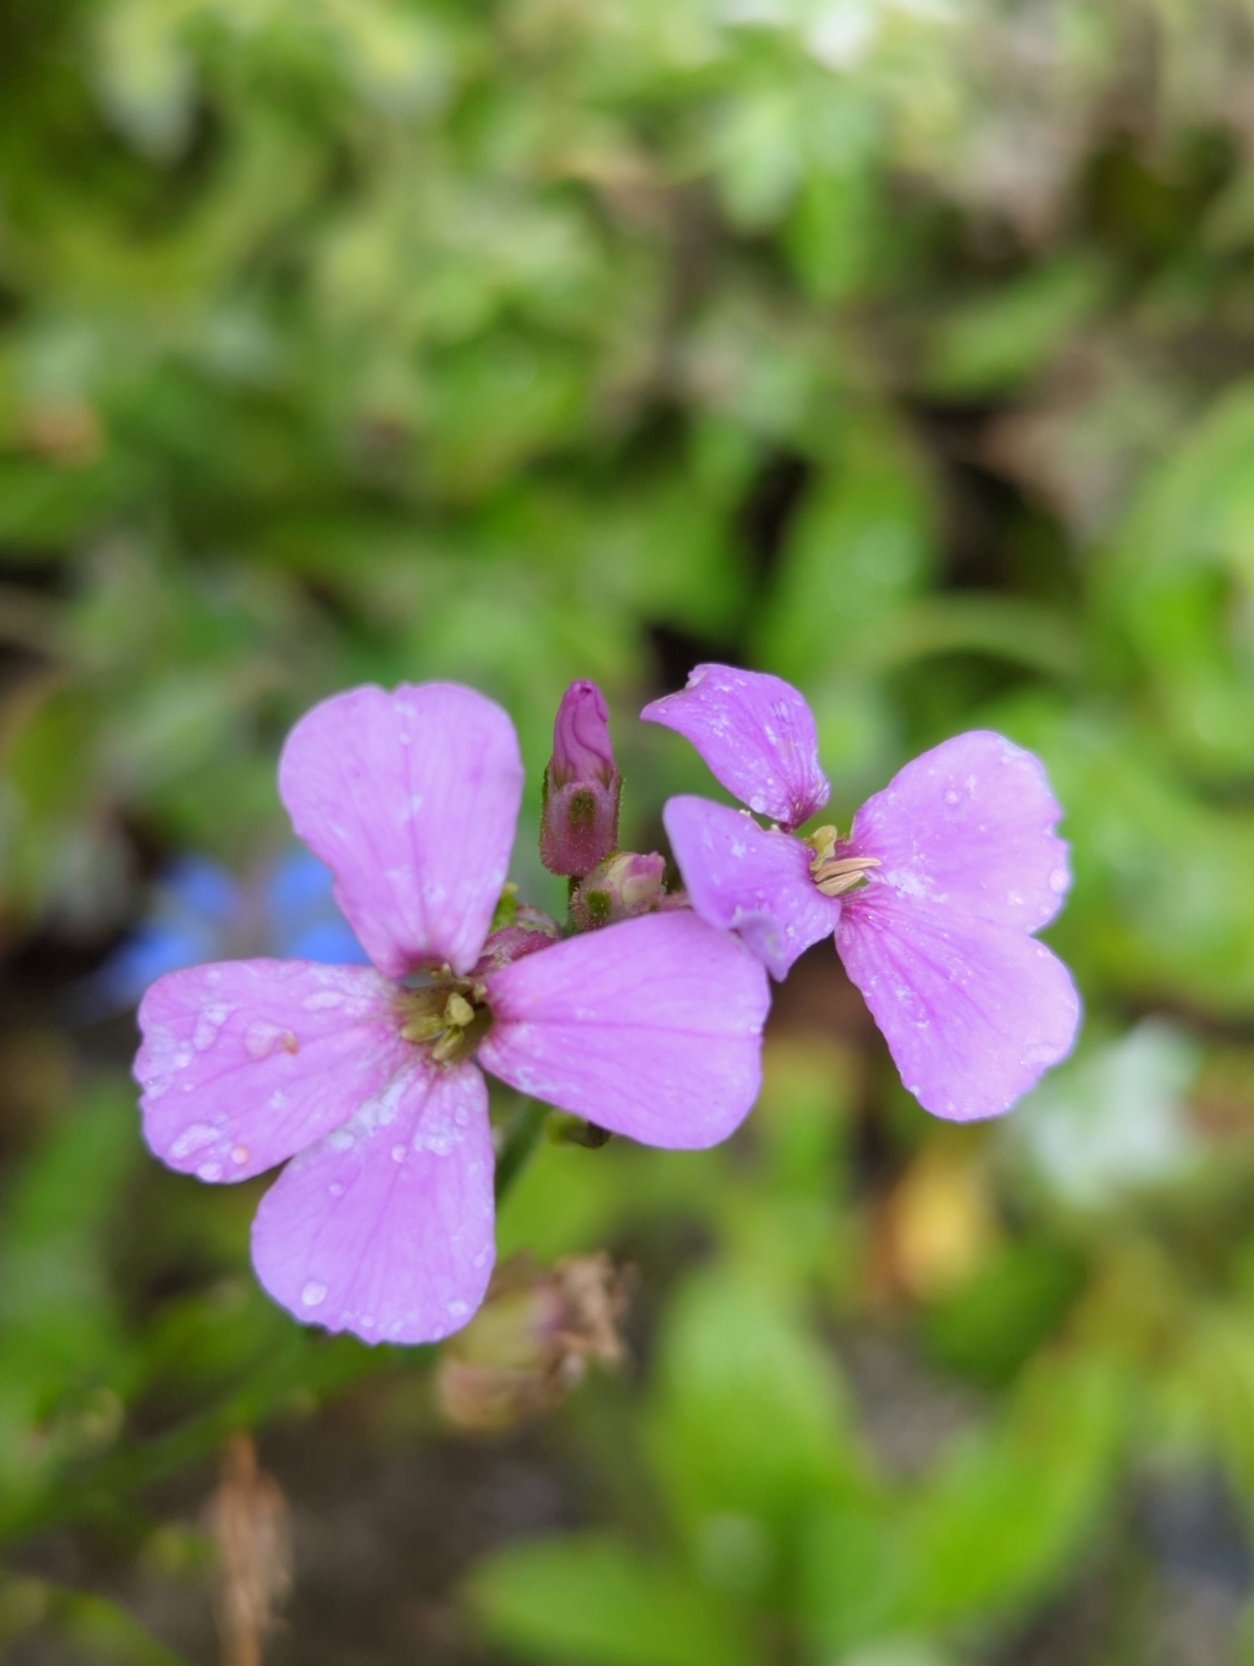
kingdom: Plantae
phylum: Tracheophyta
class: Magnoliopsida
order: Brassicales
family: Brassicaceae
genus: Hesperis
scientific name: Hesperis matronalis
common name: Aftenstjerne
